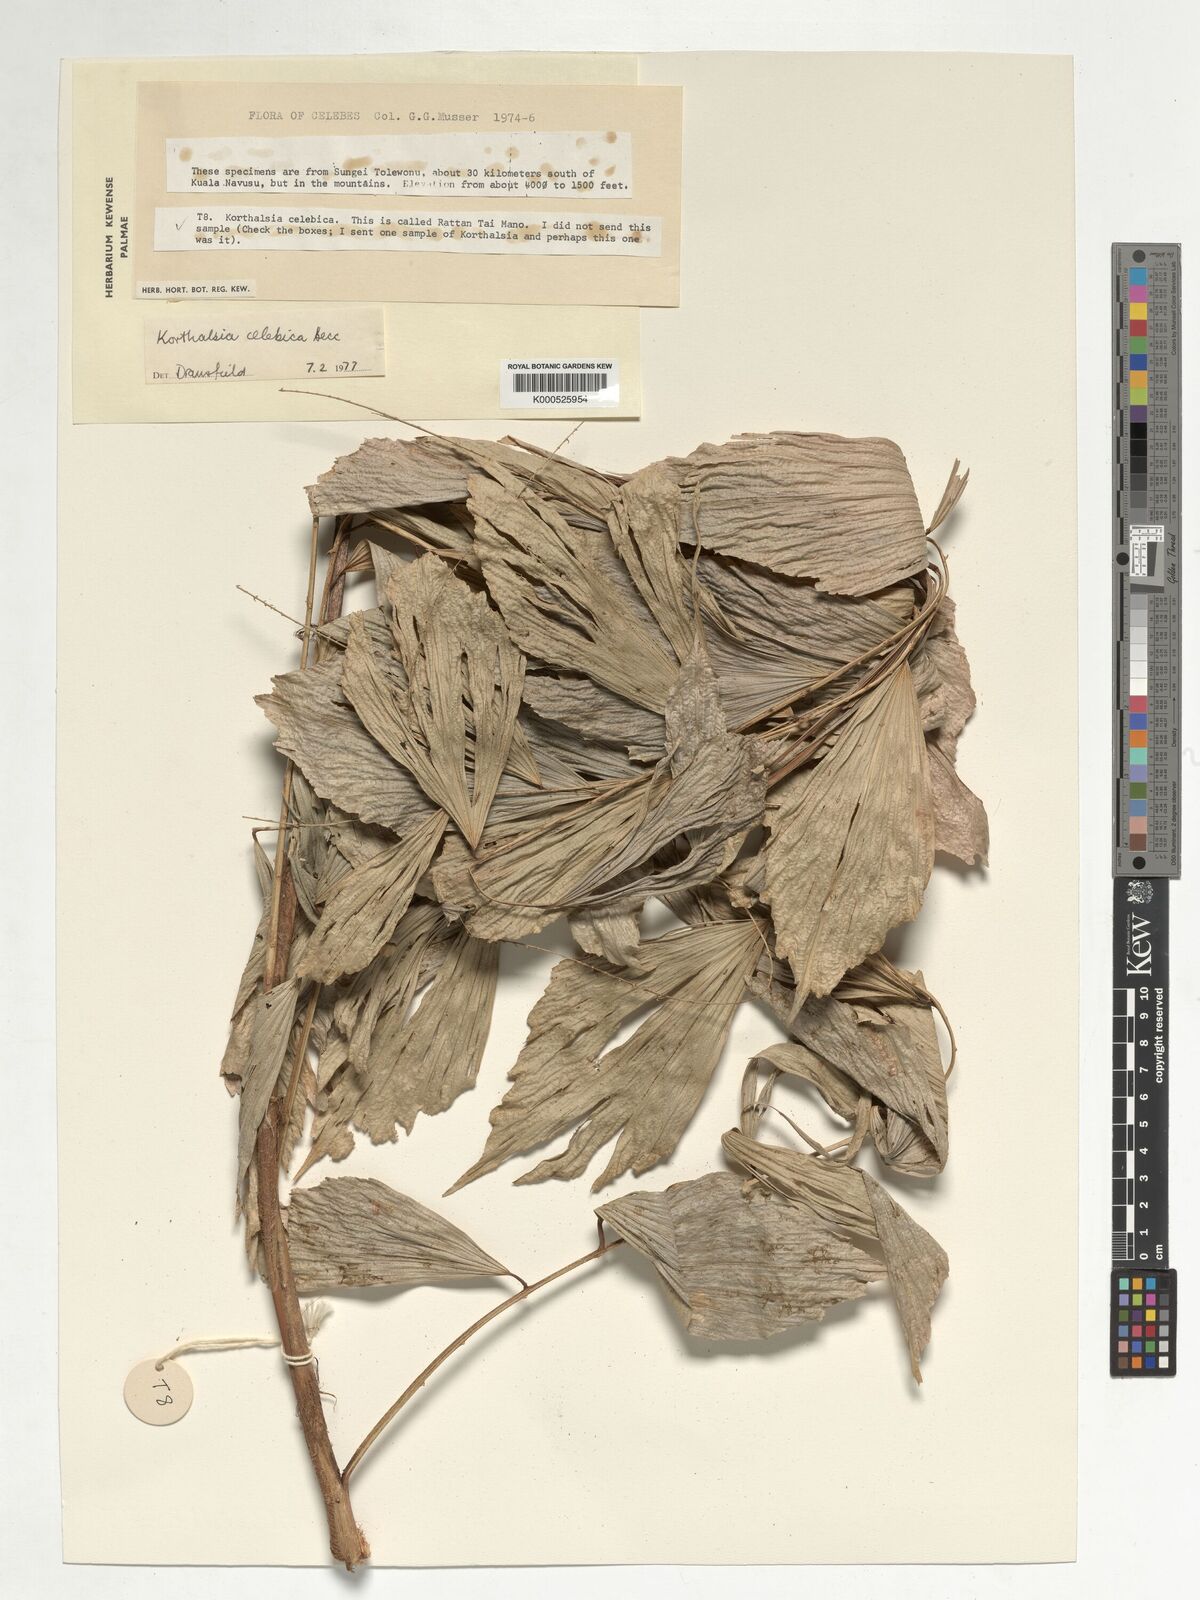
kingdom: Plantae
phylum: Tracheophyta
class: Liliopsida
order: Arecales
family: Arecaceae
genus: Korthalsia
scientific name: Korthalsia celebica
